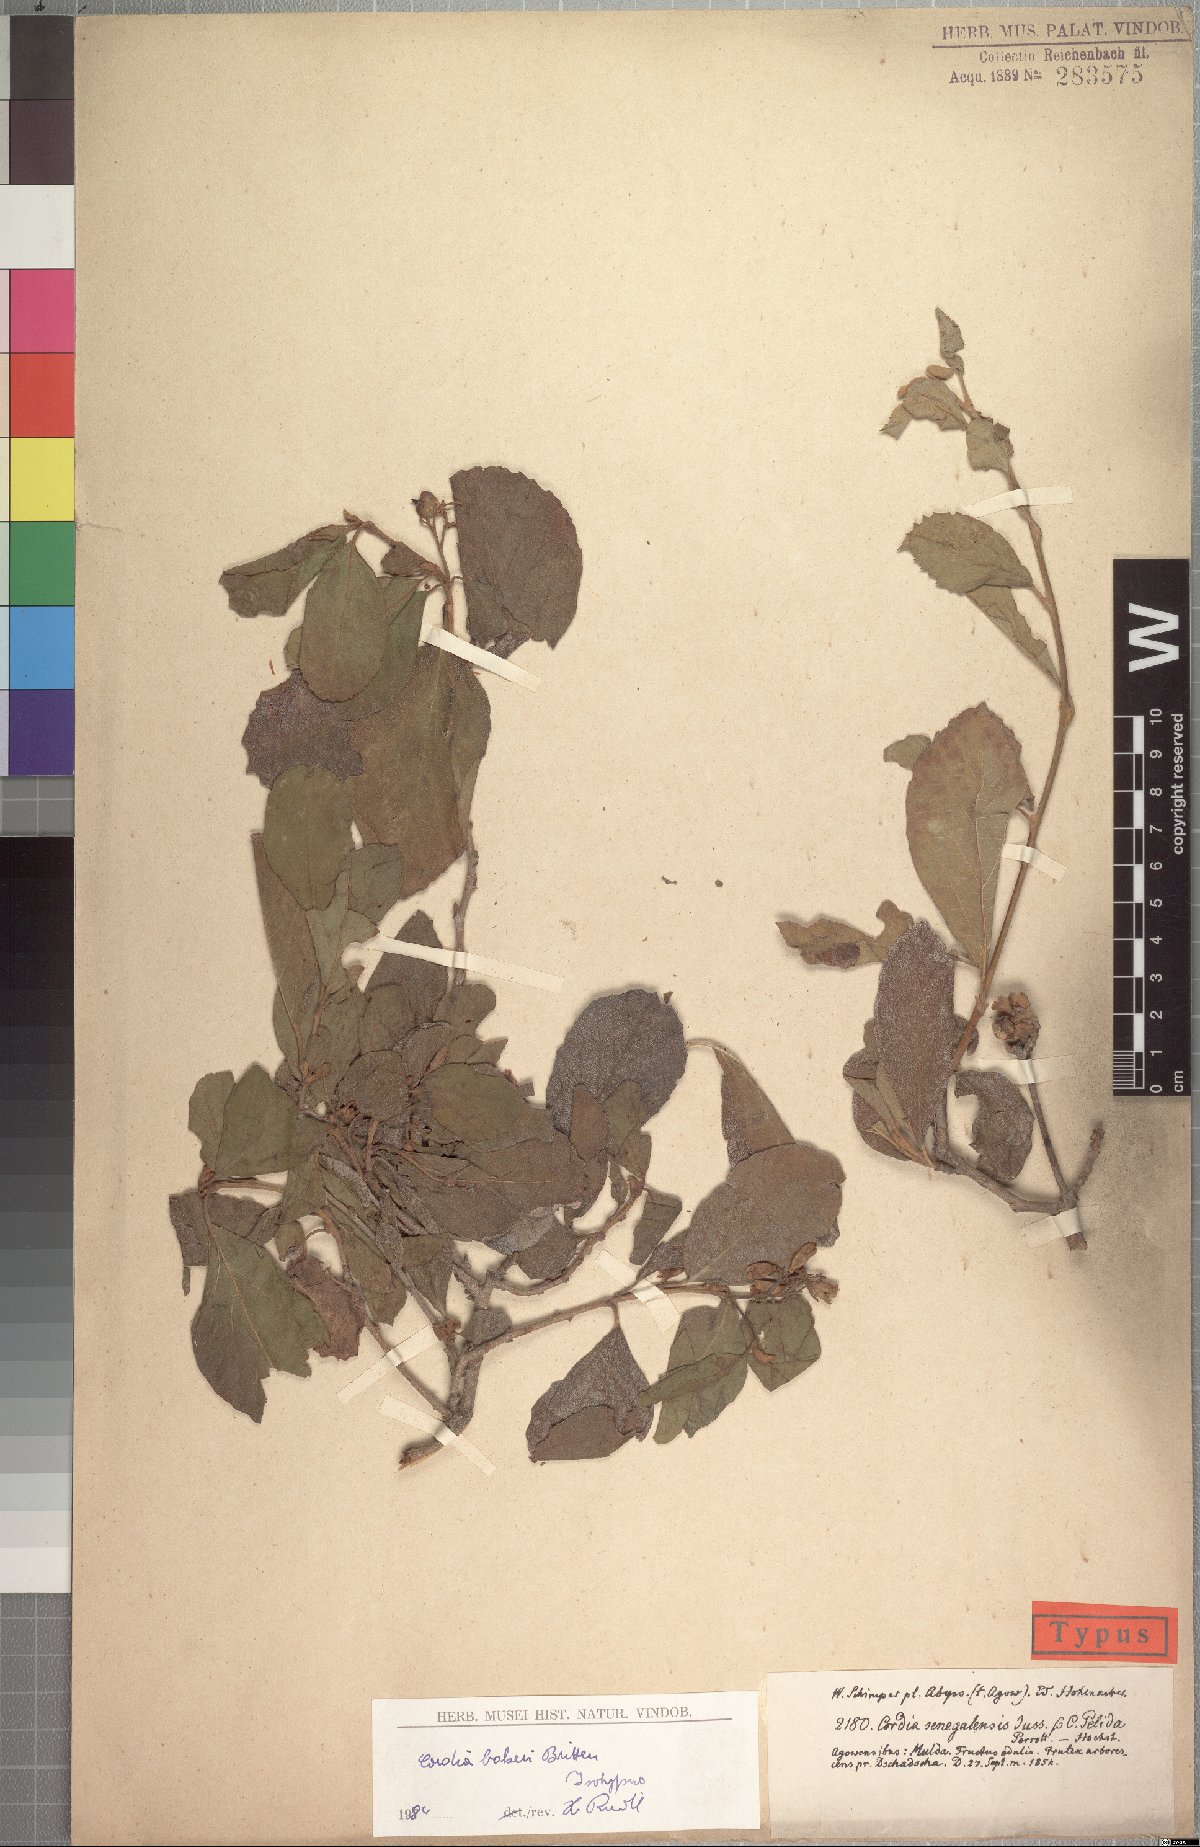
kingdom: Plantae
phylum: Tracheophyta
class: Magnoliopsida
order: Boraginales
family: Cordiaceae
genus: Cordia
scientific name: Cordia monoica
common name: Snot berry
